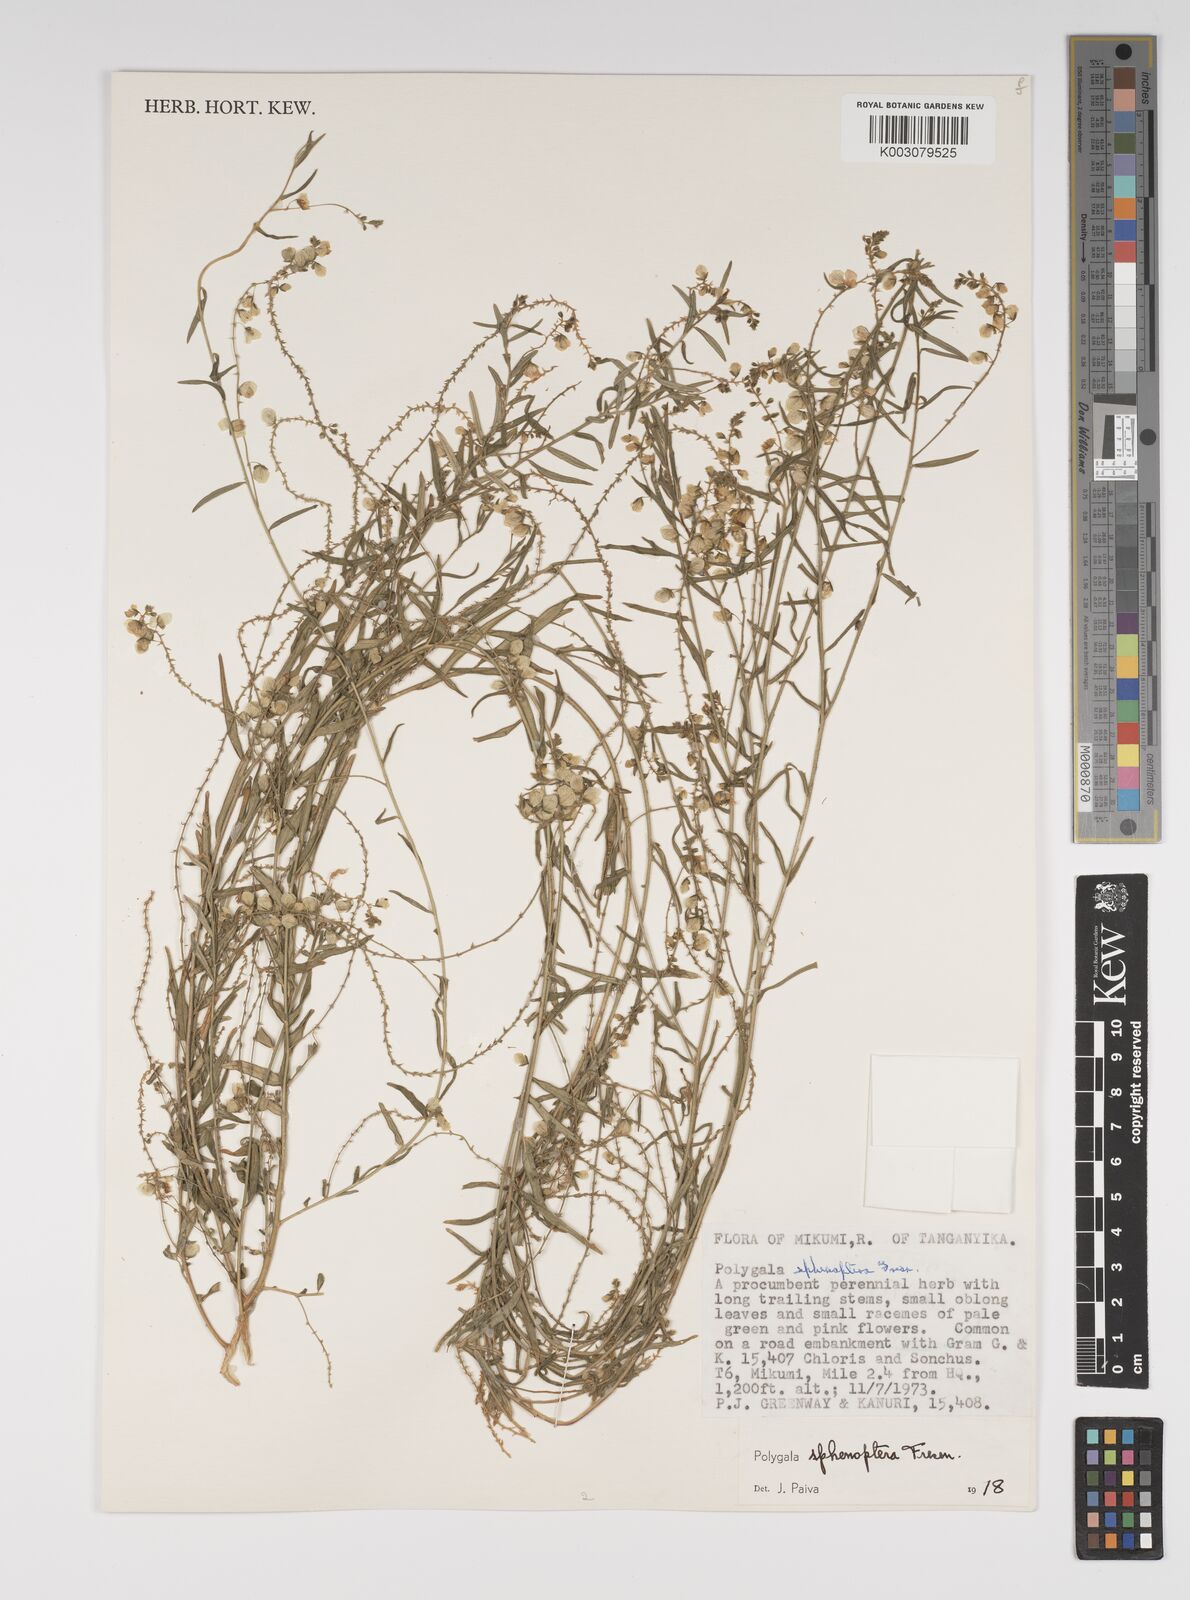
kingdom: Plantae
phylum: Tracheophyta
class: Magnoliopsida
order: Fabales
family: Polygalaceae
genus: Polygala
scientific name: Polygala sphenoptera
